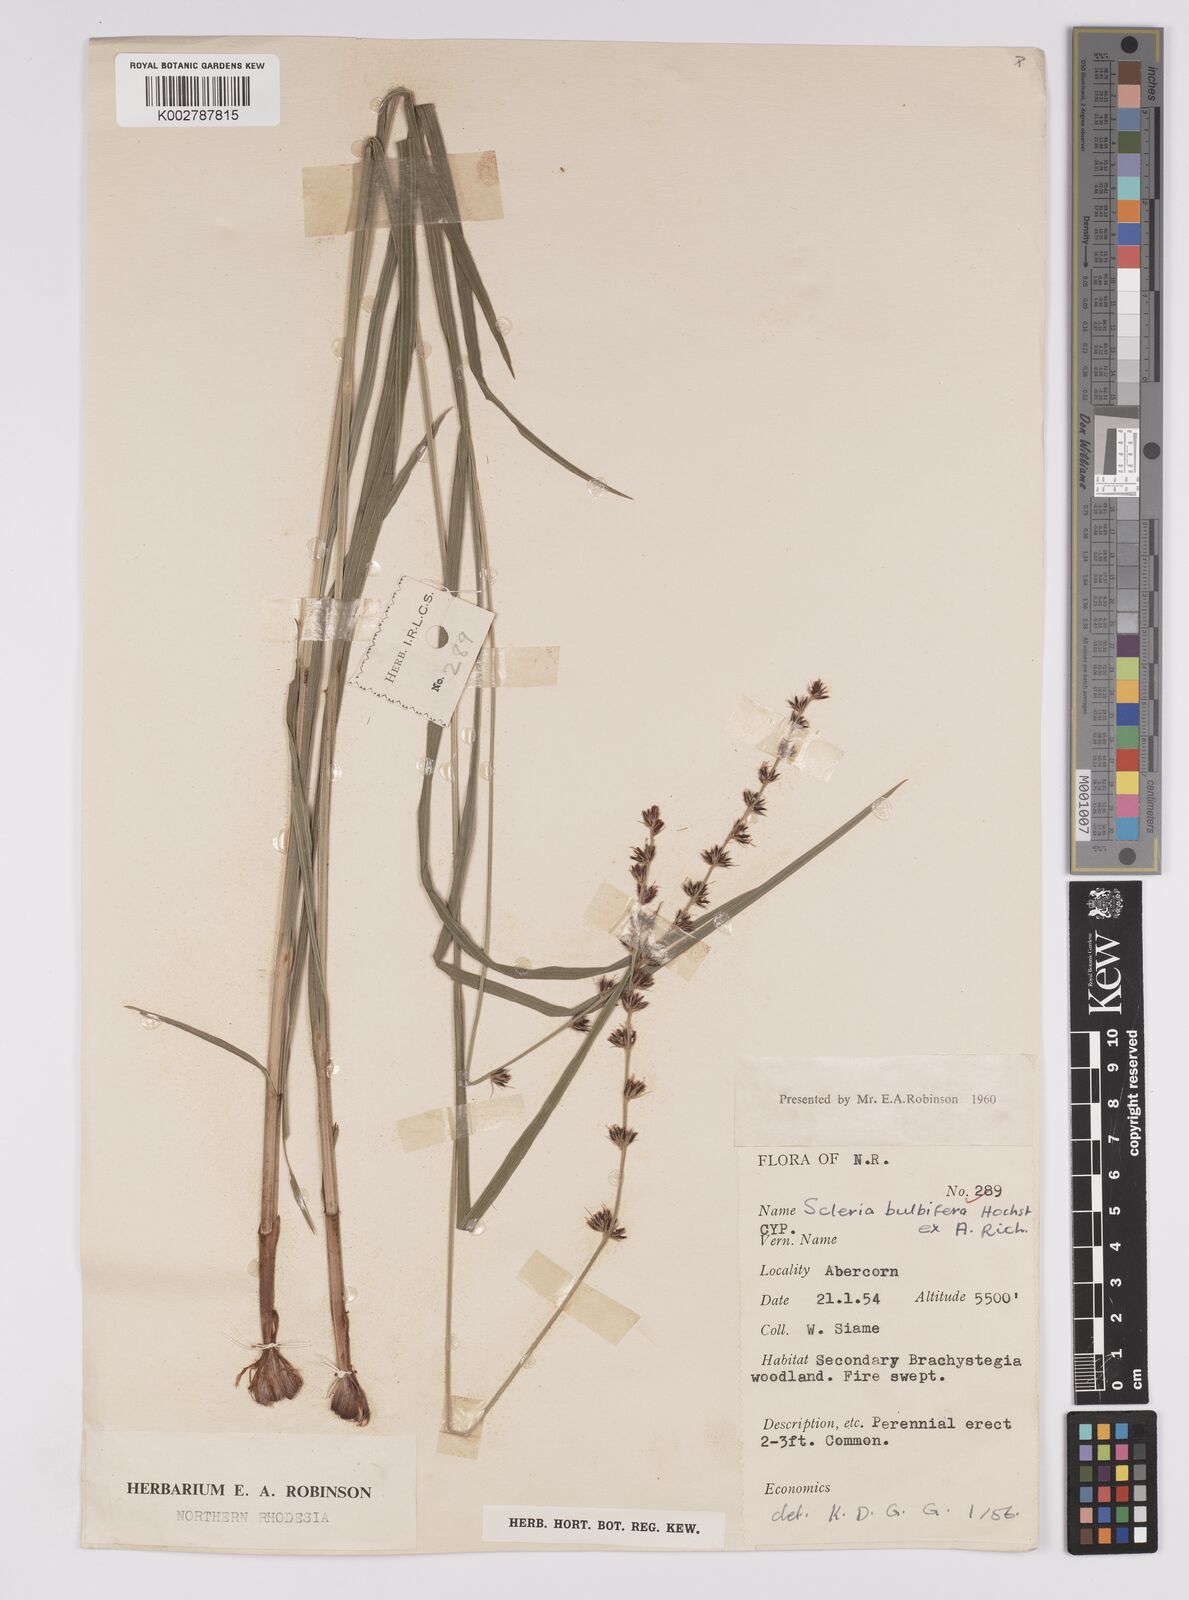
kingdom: Plantae
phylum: Tracheophyta
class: Liliopsida
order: Poales
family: Cyperaceae
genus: Scleria
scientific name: Scleria bulbifera
